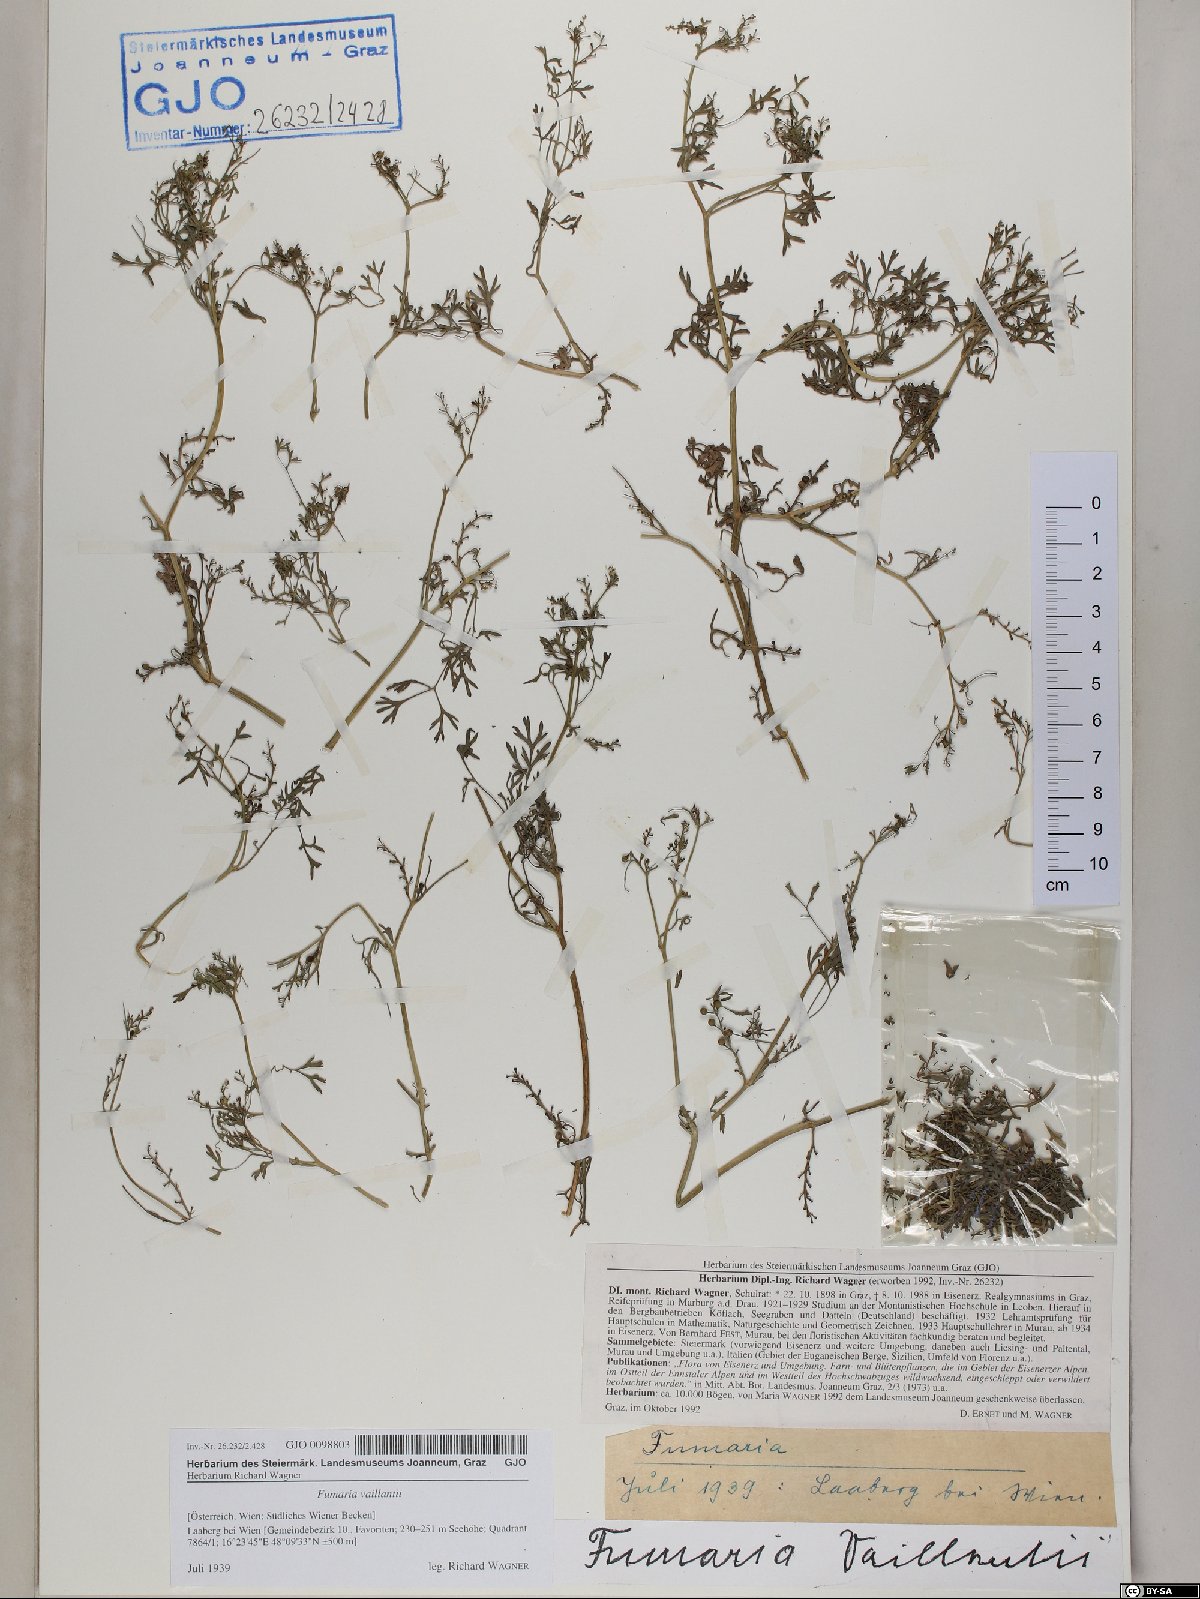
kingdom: Plantae
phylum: Tracheophyta
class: Magnoliopsida
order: Ranunculales
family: Papaveraceae
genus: Fumaria
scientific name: Fumaria vaillantii
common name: Few-flowered fumitory
